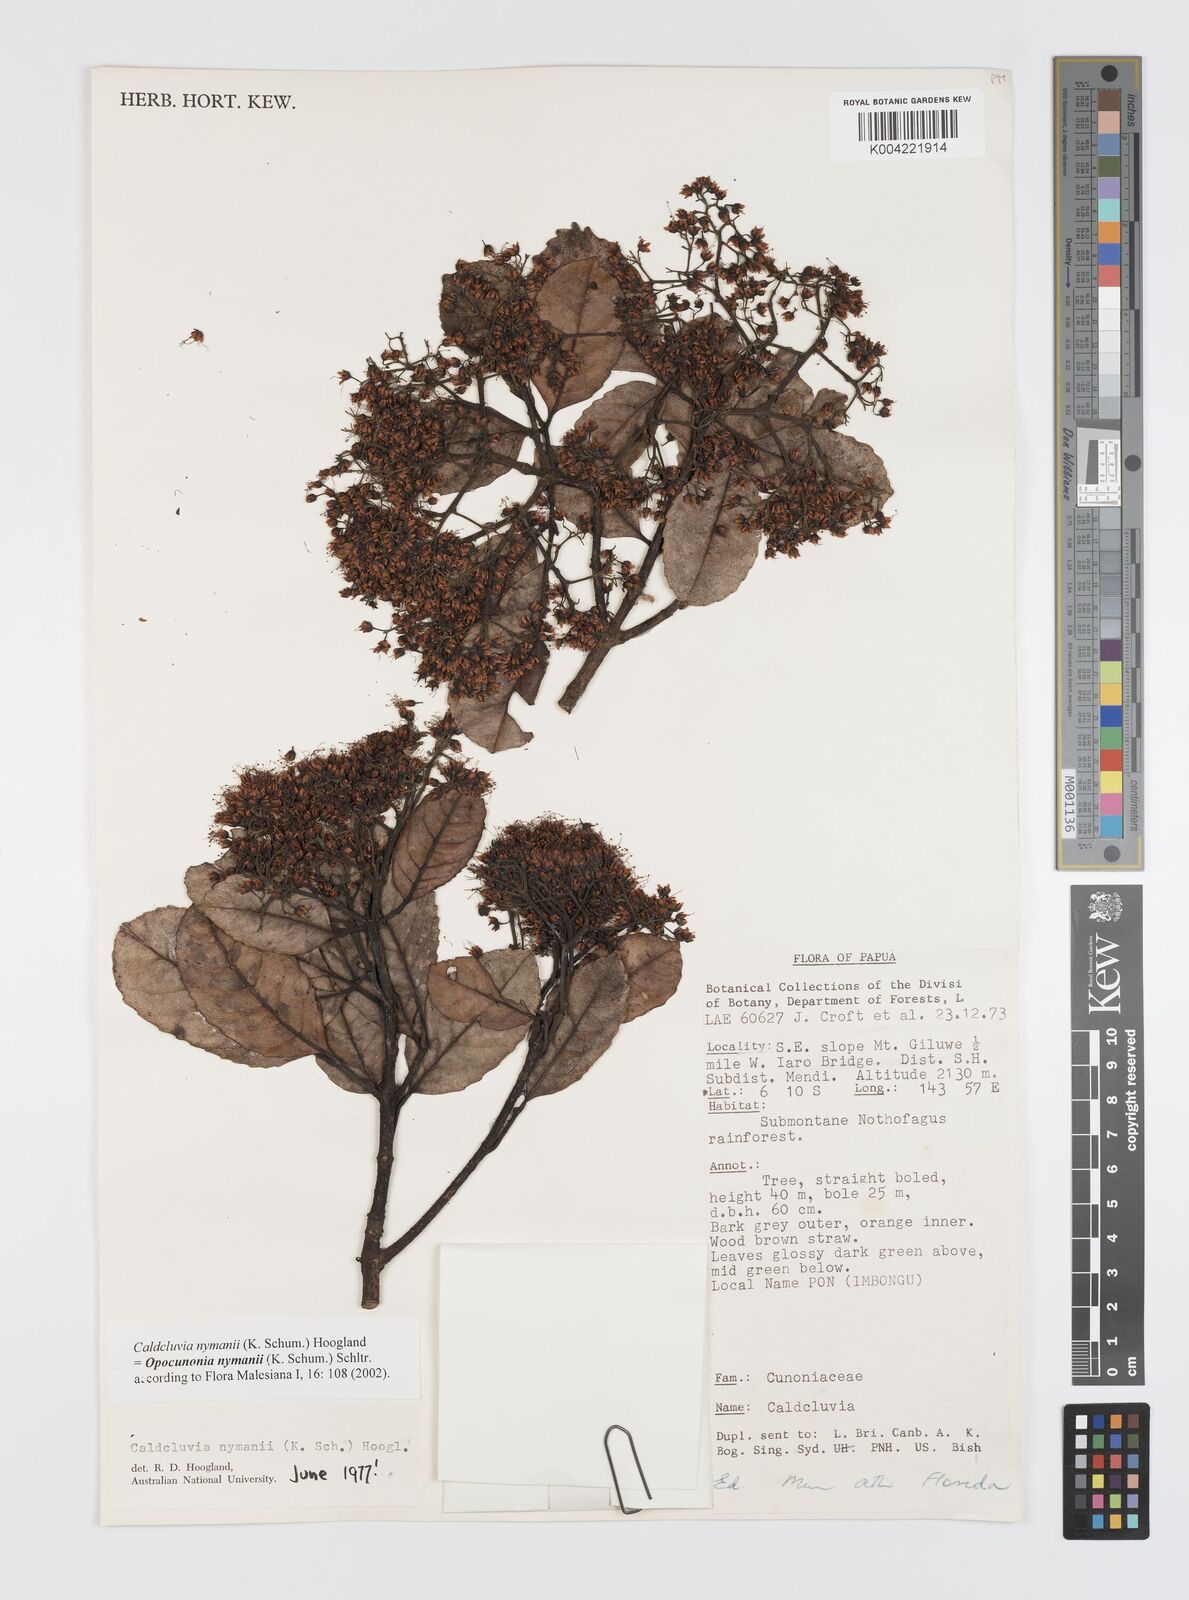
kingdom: Plantae
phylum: Tracheophyta
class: Magnoliopsida
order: Oxalidales
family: Cunoniaceae
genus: Opocunonia
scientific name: Opocunonia nymanii
